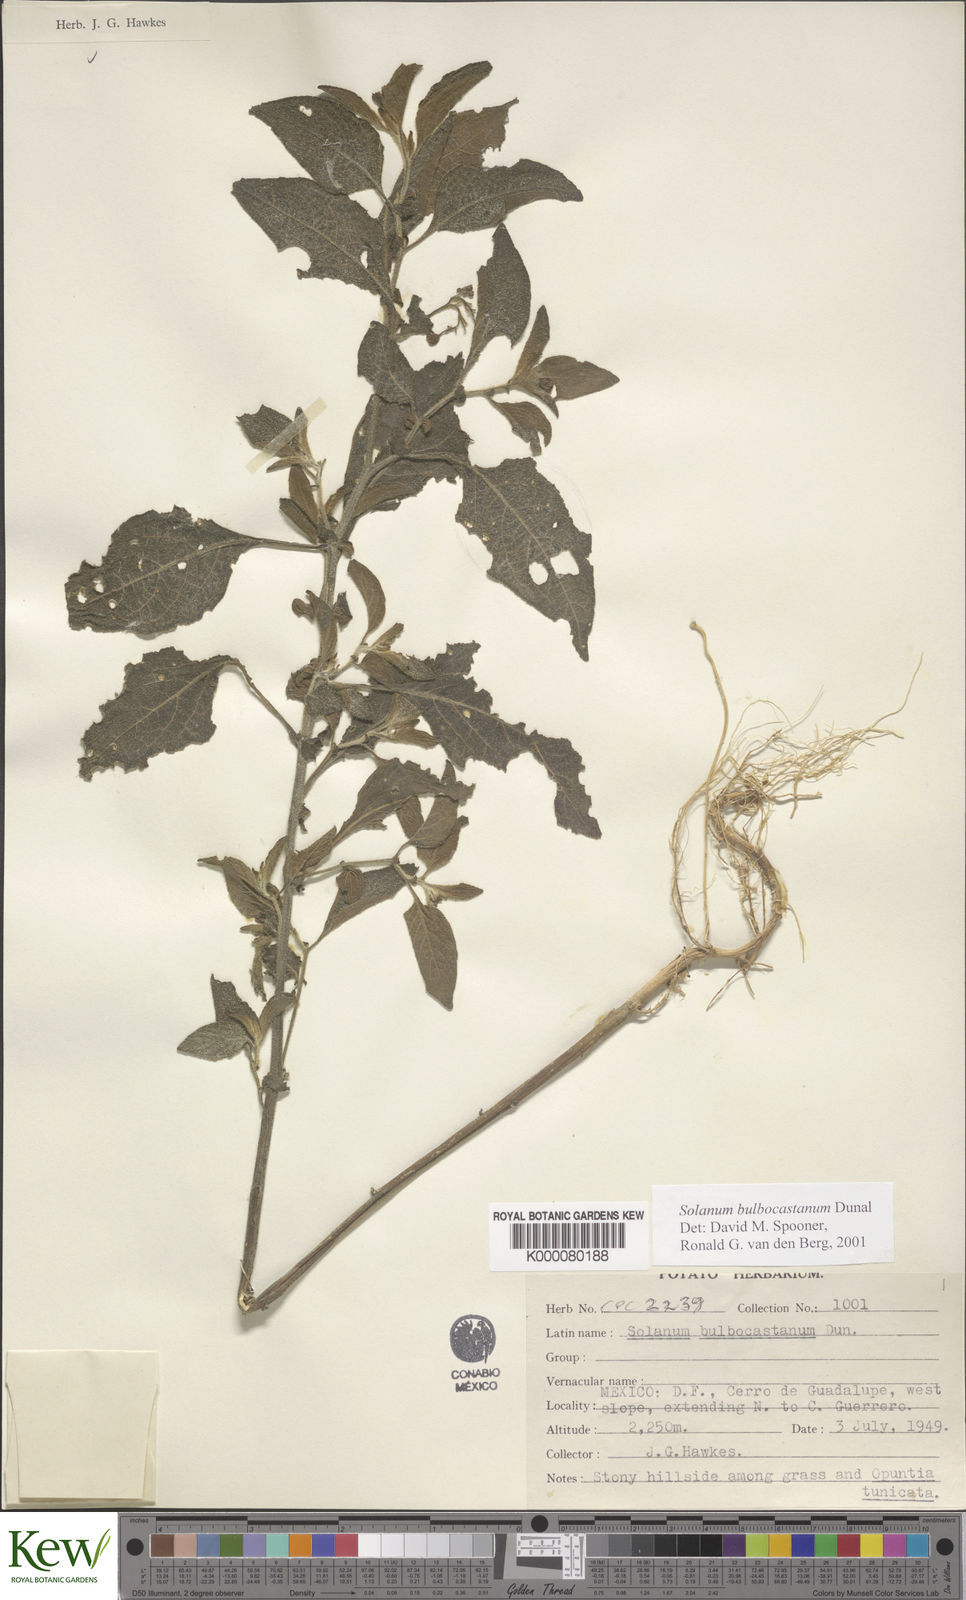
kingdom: Plantae
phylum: Tracheophyta
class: Magnoliopsida
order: Solanales
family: Solanaceae
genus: Solanum
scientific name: Solanum bulbocastanum
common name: Ornamental nightshade
